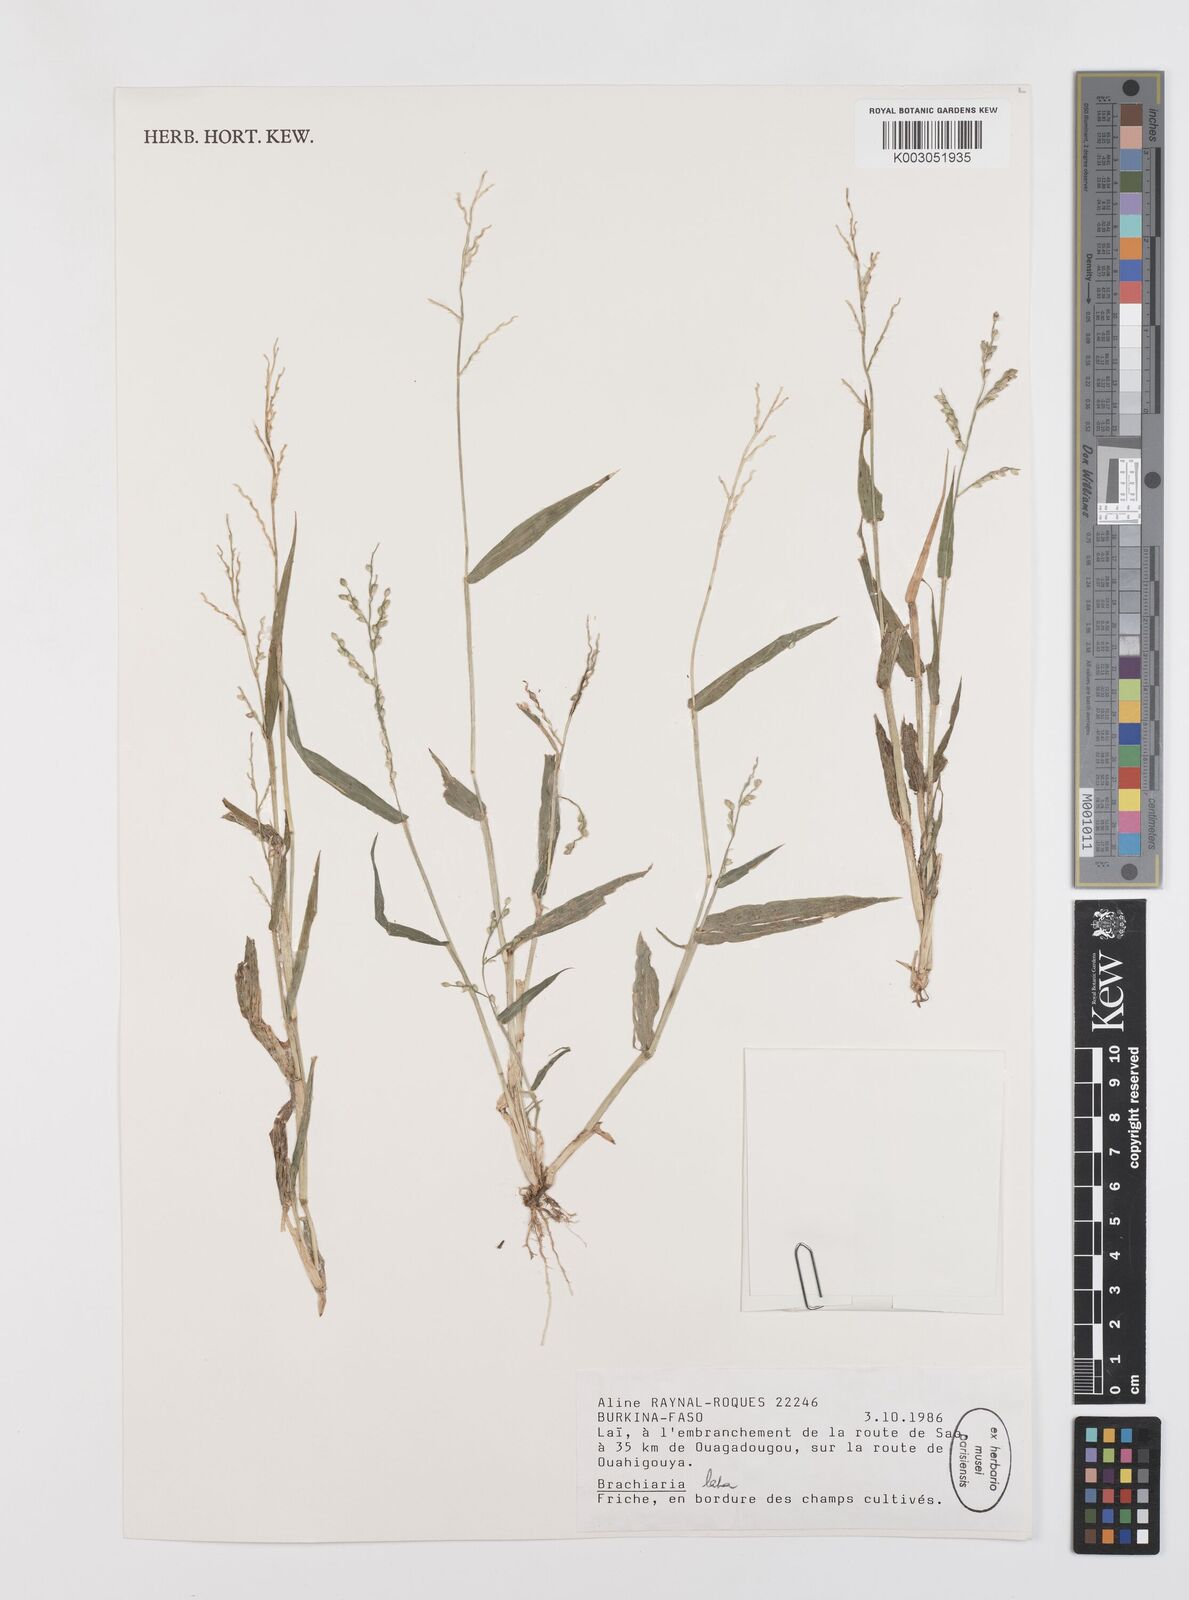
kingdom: Plantae
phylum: Tracheophyta
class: Liliopsida
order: Poales
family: Poaceae
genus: Urochloa
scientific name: Urochloa lata
